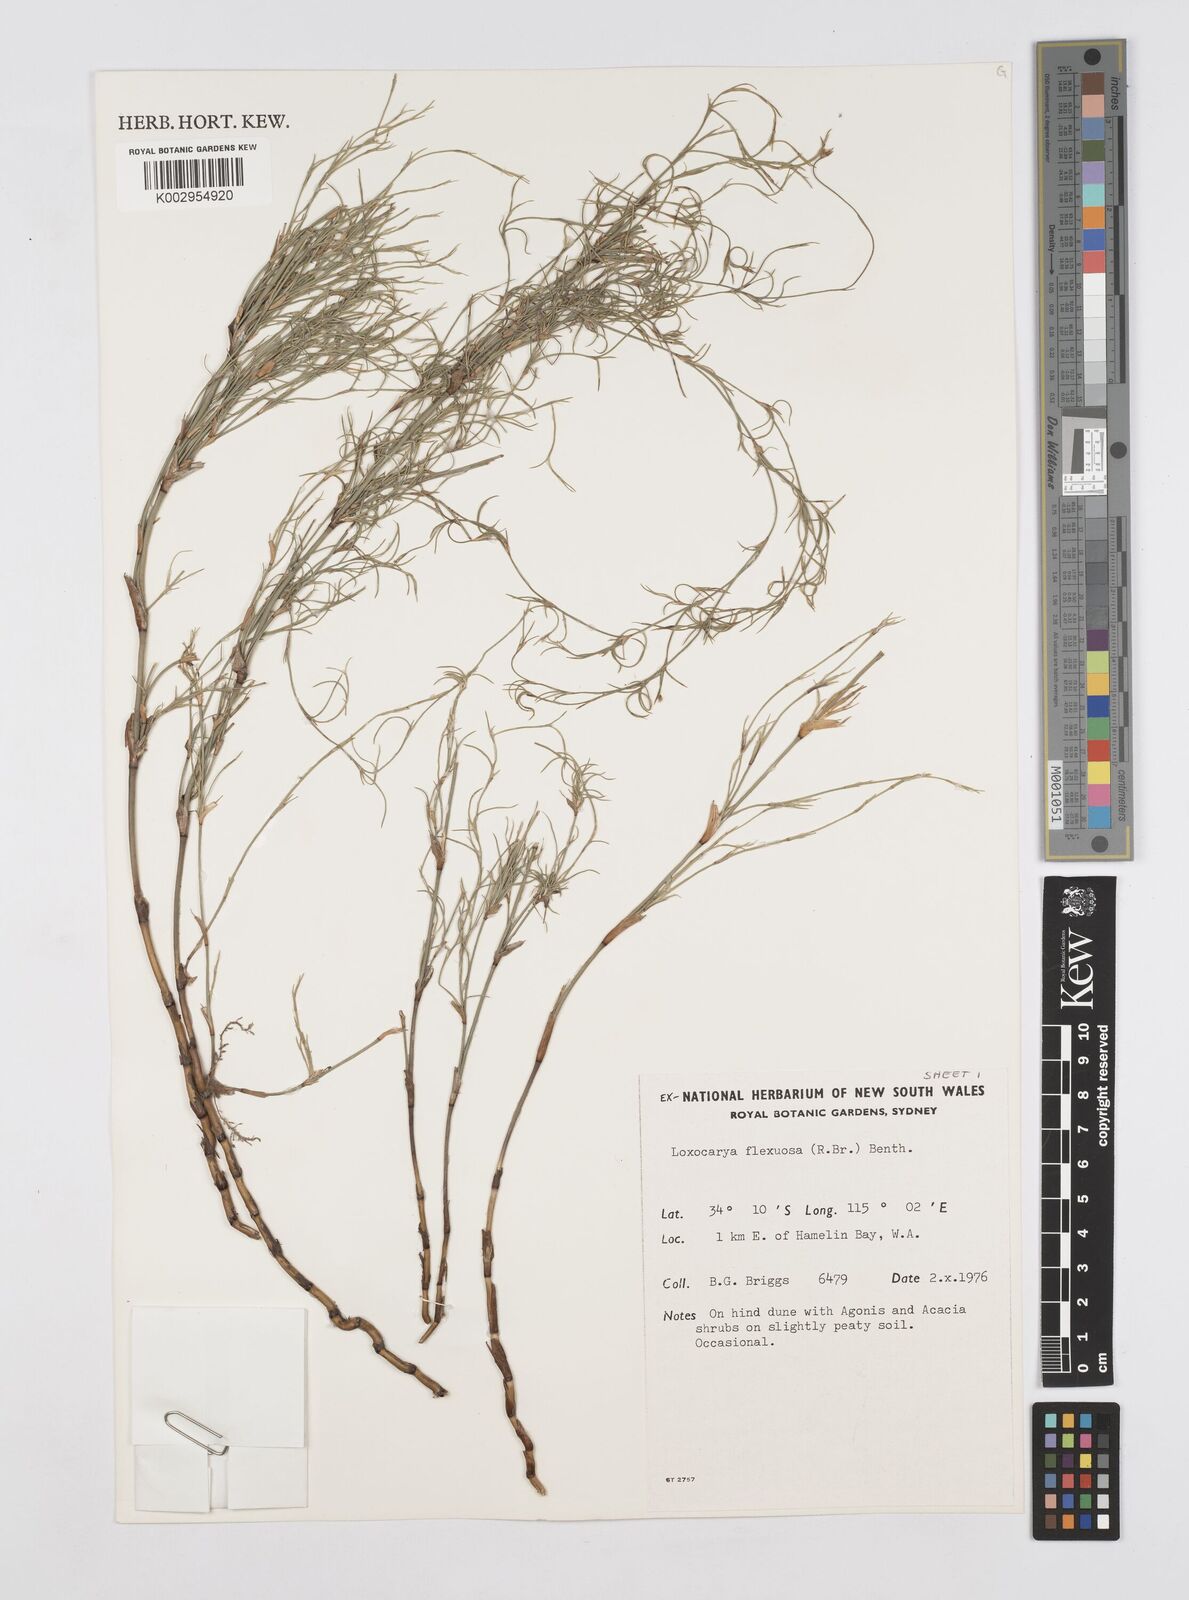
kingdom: Plantae
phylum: Tracheophyta
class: Liliopsida
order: Poales
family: Restionaceae
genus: Desmocladus
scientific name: Desmocladus flexuosus
